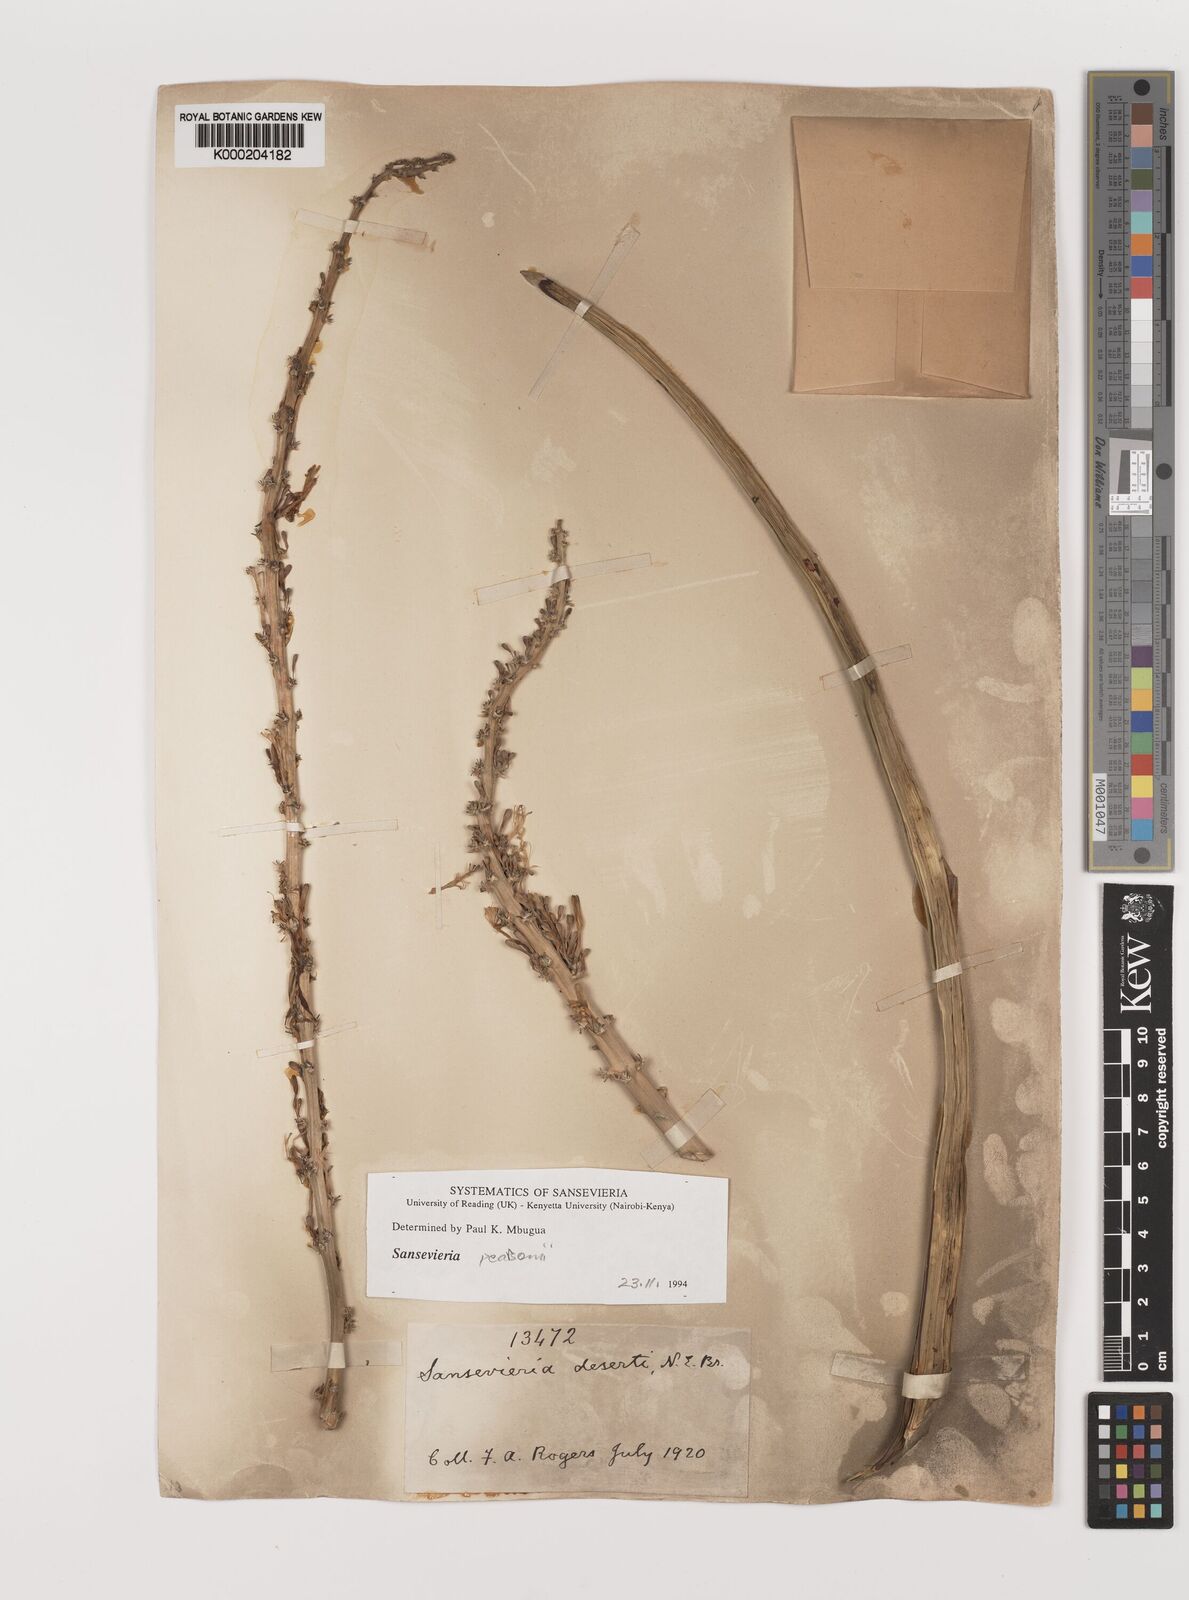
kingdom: Plantae
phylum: Tracheophyta
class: Liliopsida
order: Asparagales
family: Asparagaceae
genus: Dracaena
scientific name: Dracaena pearsonii
